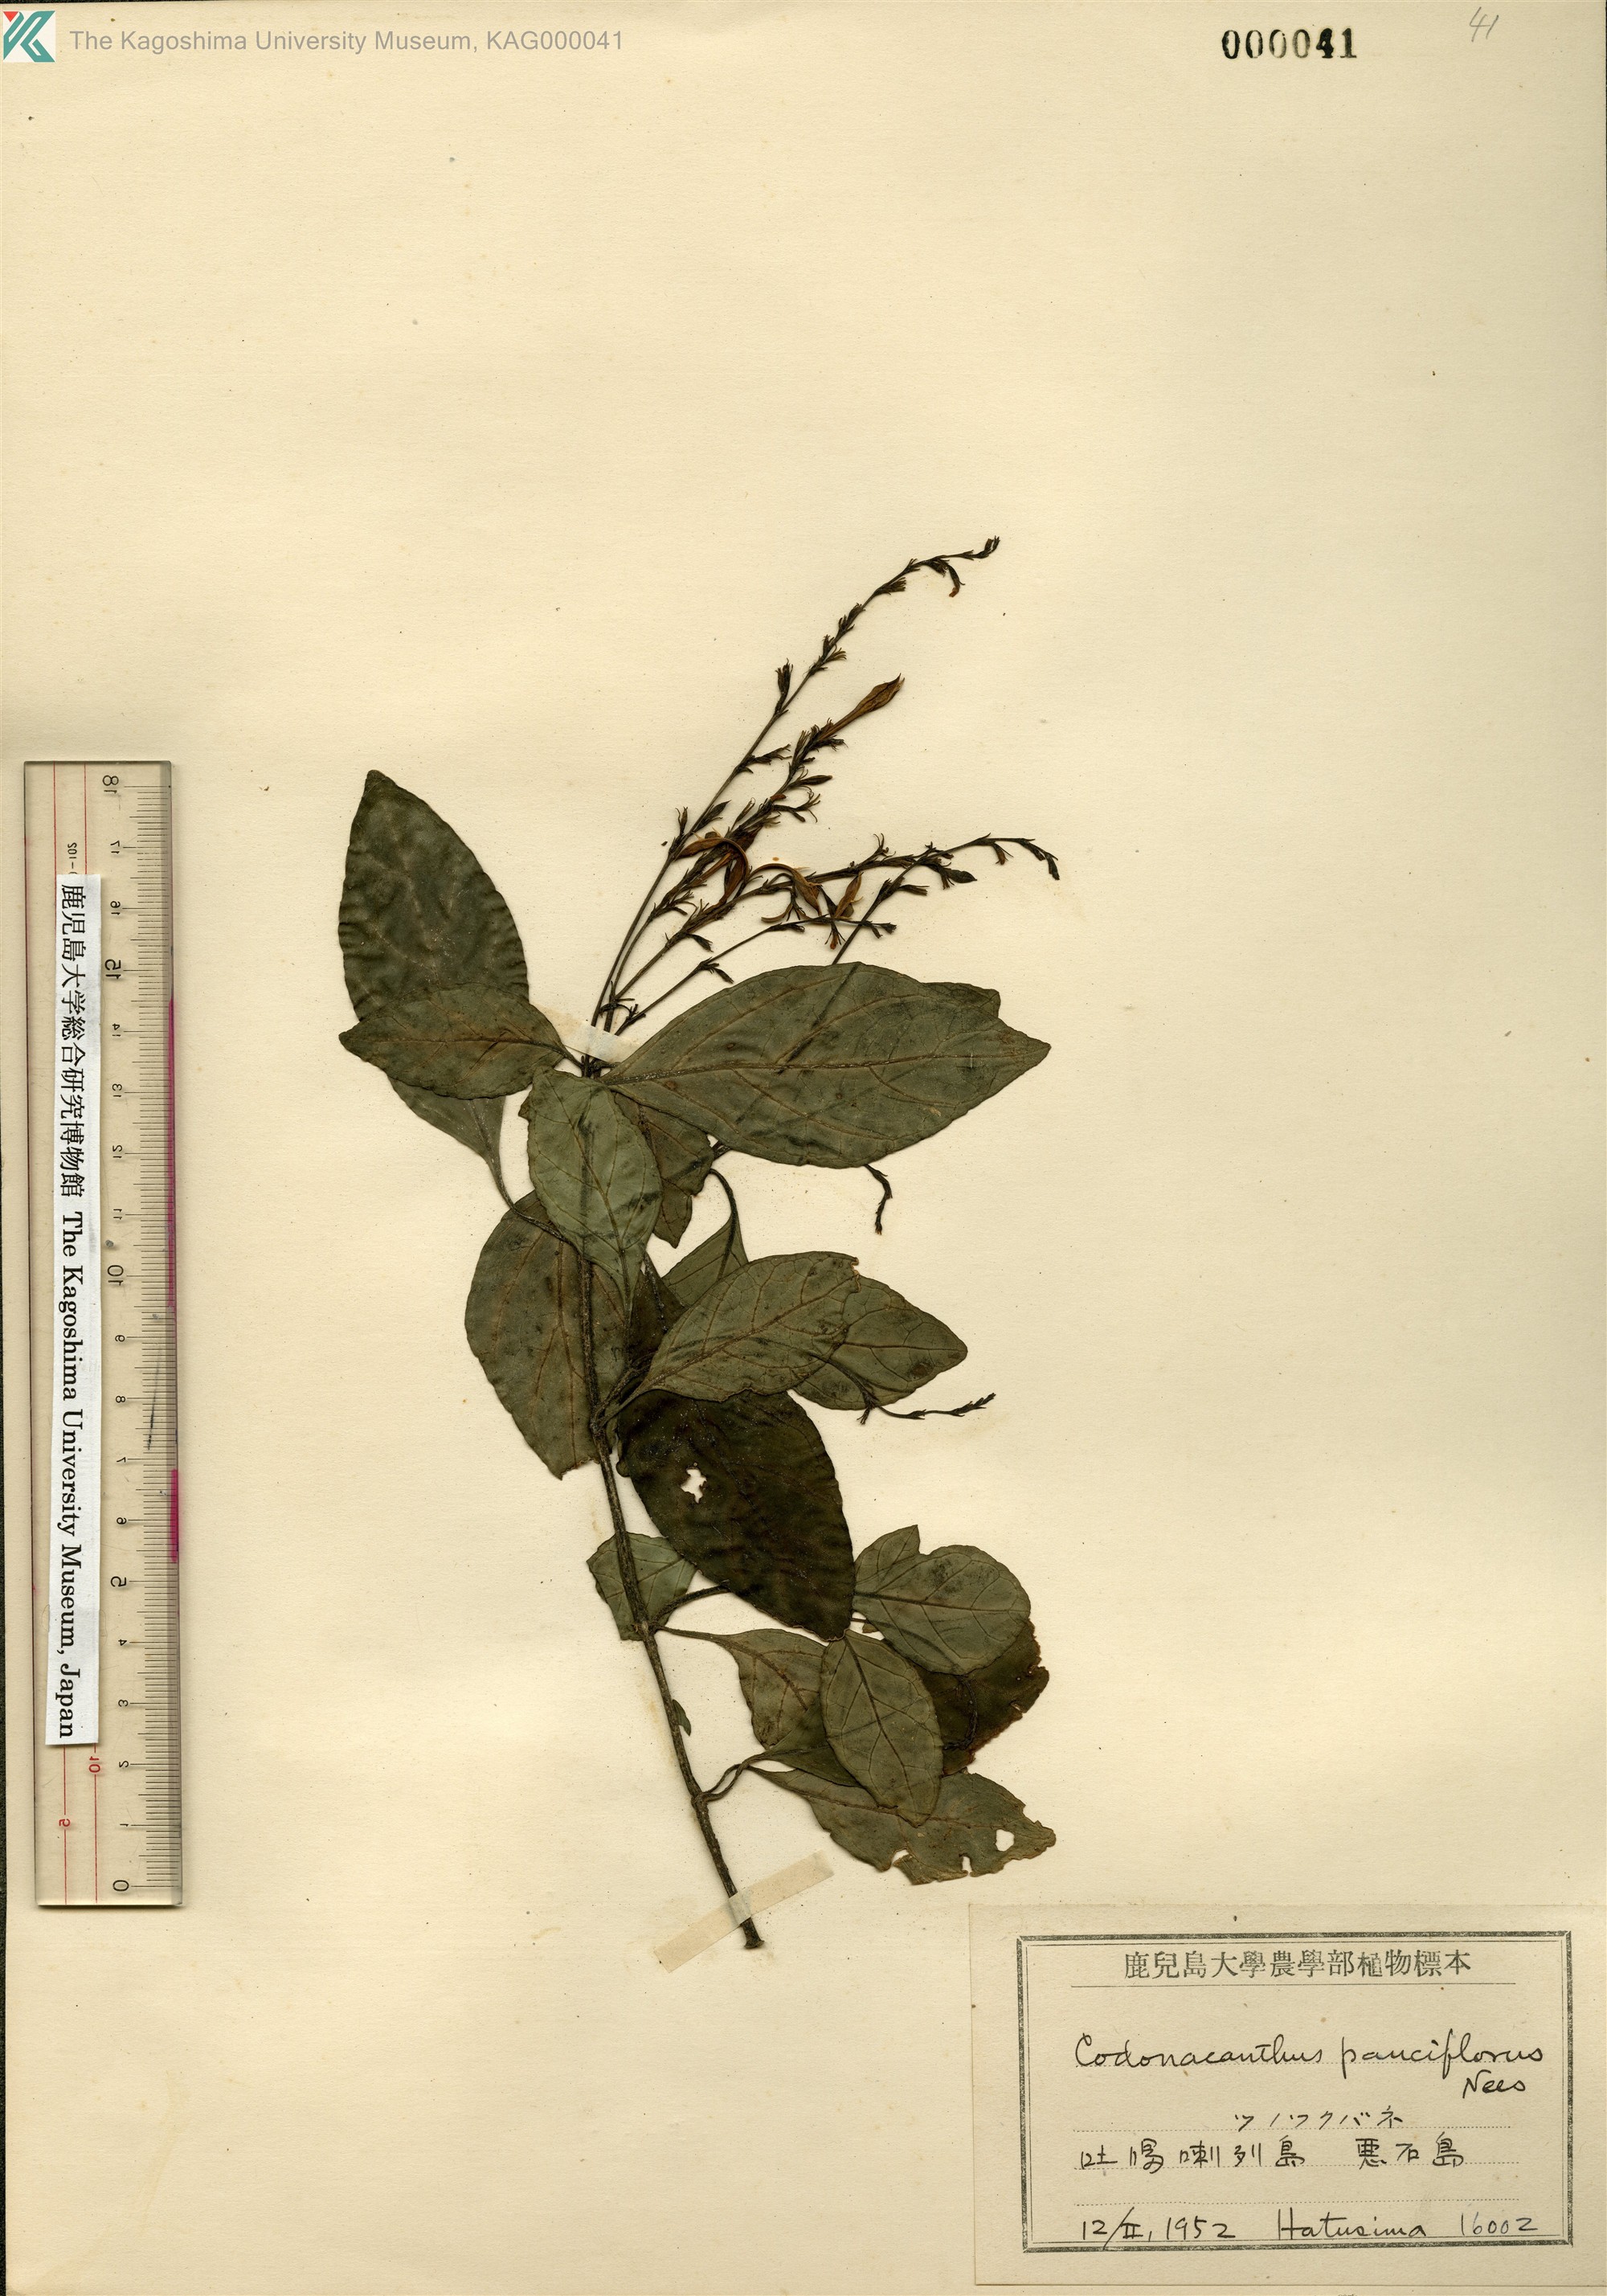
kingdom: Plantae
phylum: Tracheophyta
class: Magnoliopsida
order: Lamiales
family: Acanthaceae
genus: Codonacanthus
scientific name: Codonacanthus pauciflorus
